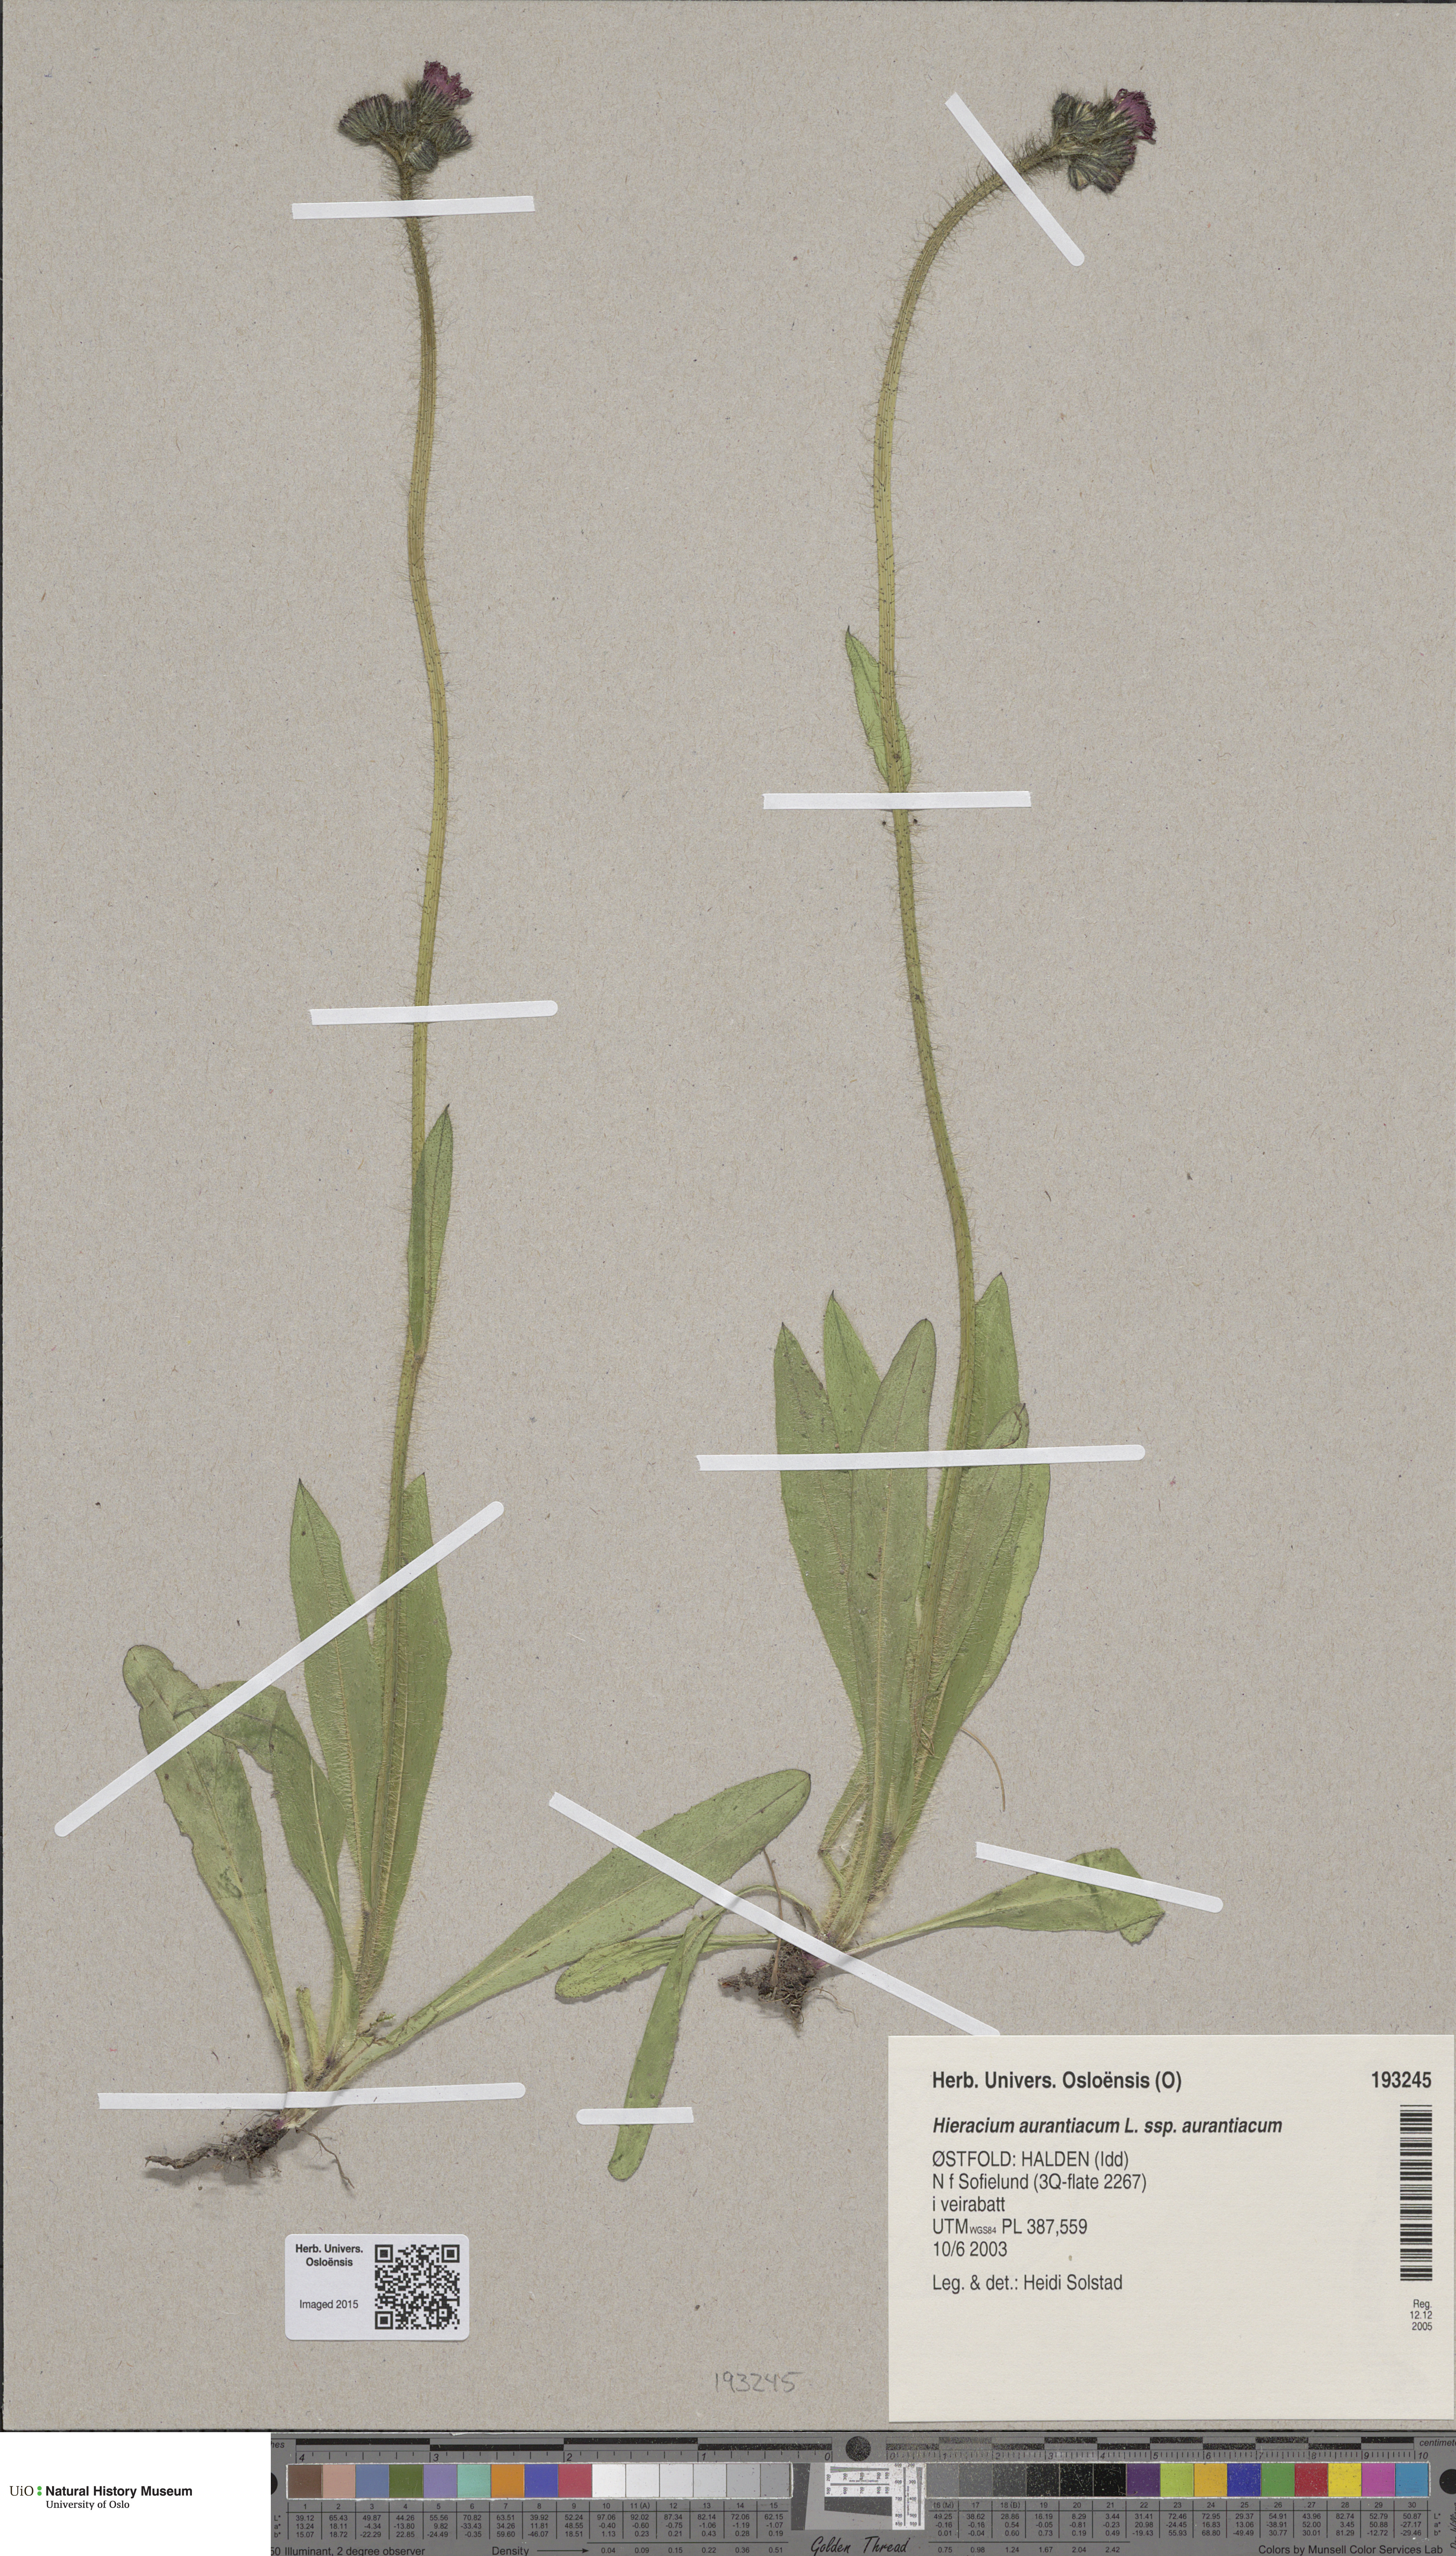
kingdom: Plantae
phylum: Tracheophyta
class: Magnoliopsida
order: Asterales
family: Asteraceae
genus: Pilosella
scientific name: Pilosella aurantiaca
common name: Fox-and-cubs
